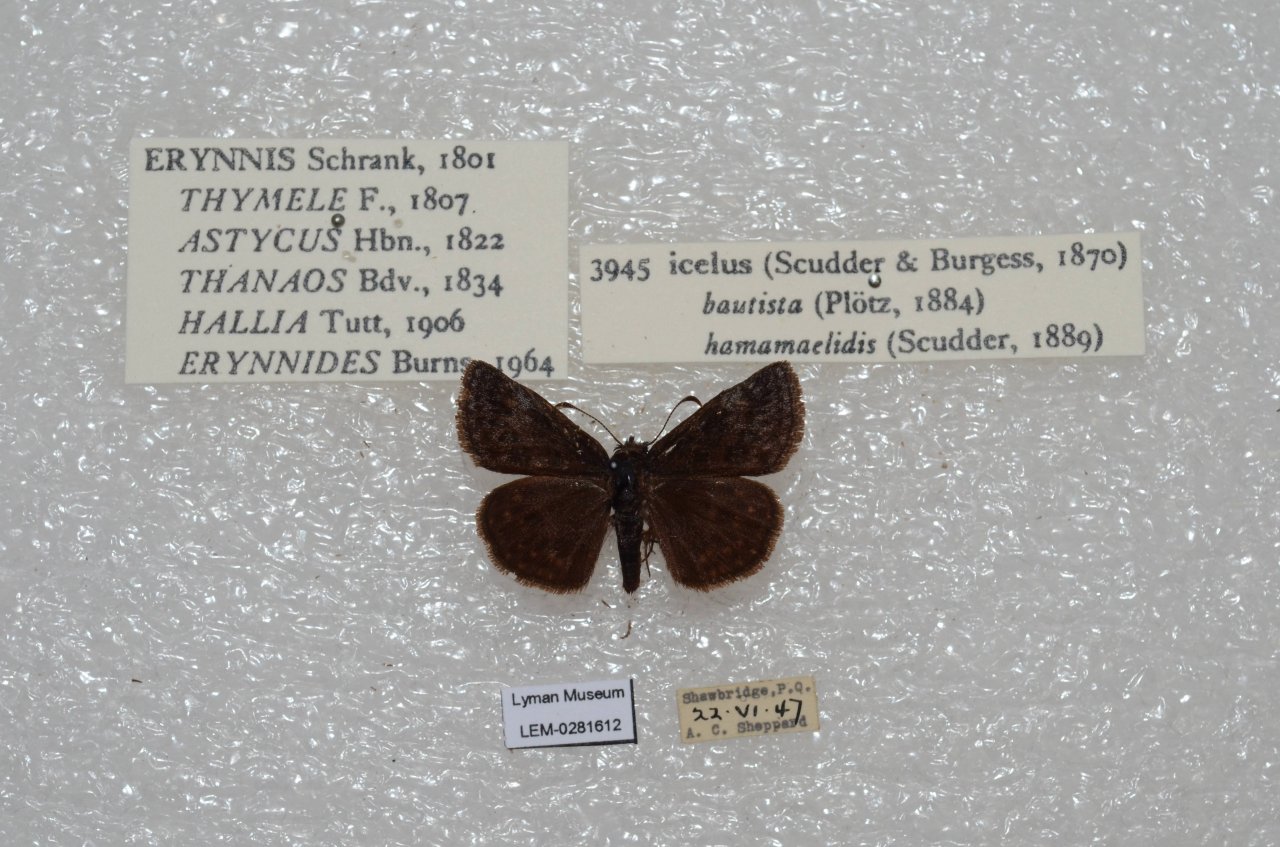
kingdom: Animalia
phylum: Arthropoda
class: Insecta
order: Lepidoptera
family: Hesperiidae
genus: Erynnis
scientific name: Erynnis icelus
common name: Dreamy Duskywing
